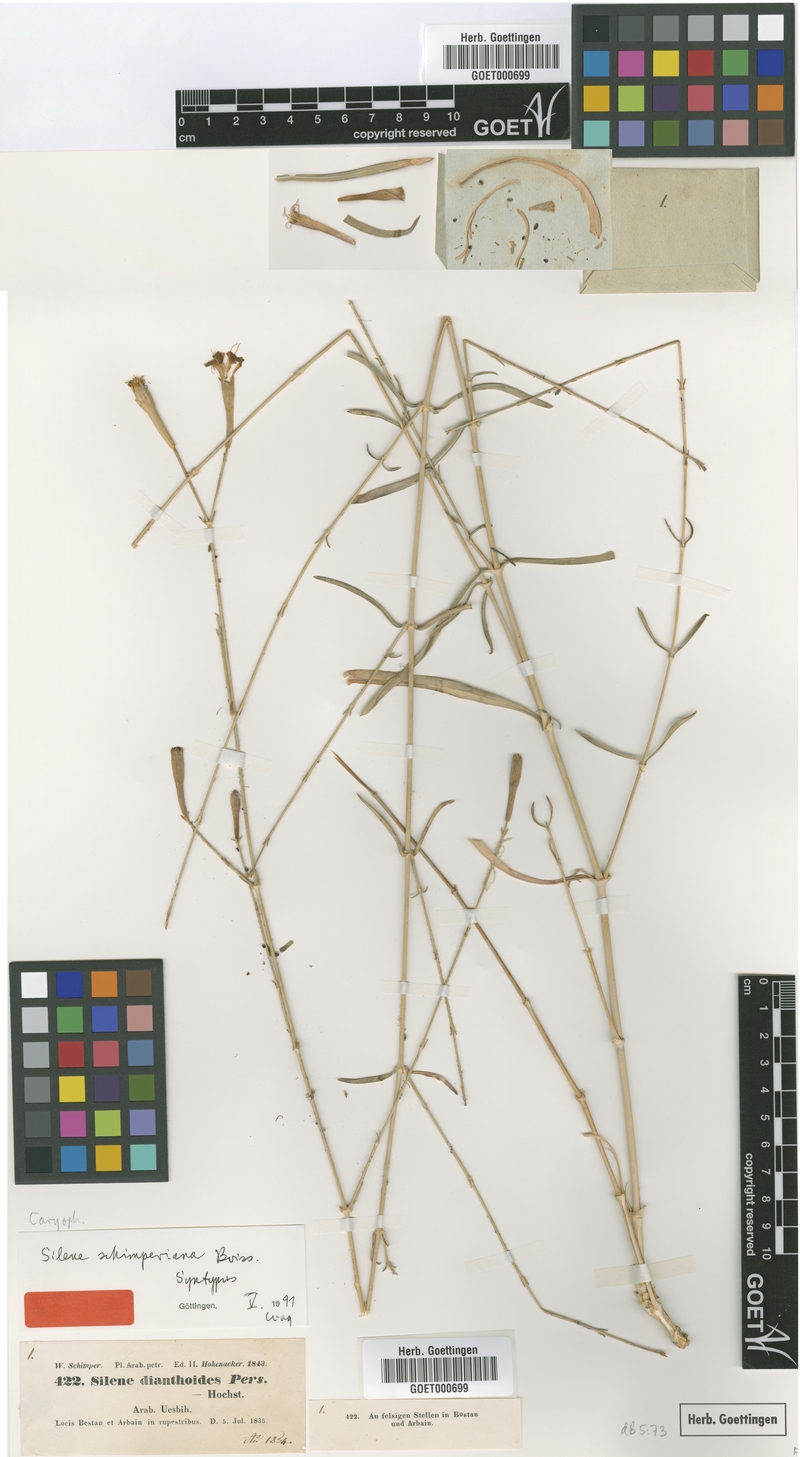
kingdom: Plantae
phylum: Tracheophyta
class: Magnoliopsida
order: Caryophyllales
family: Caryophyllaceae
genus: Silene
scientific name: Silene schimperiana
